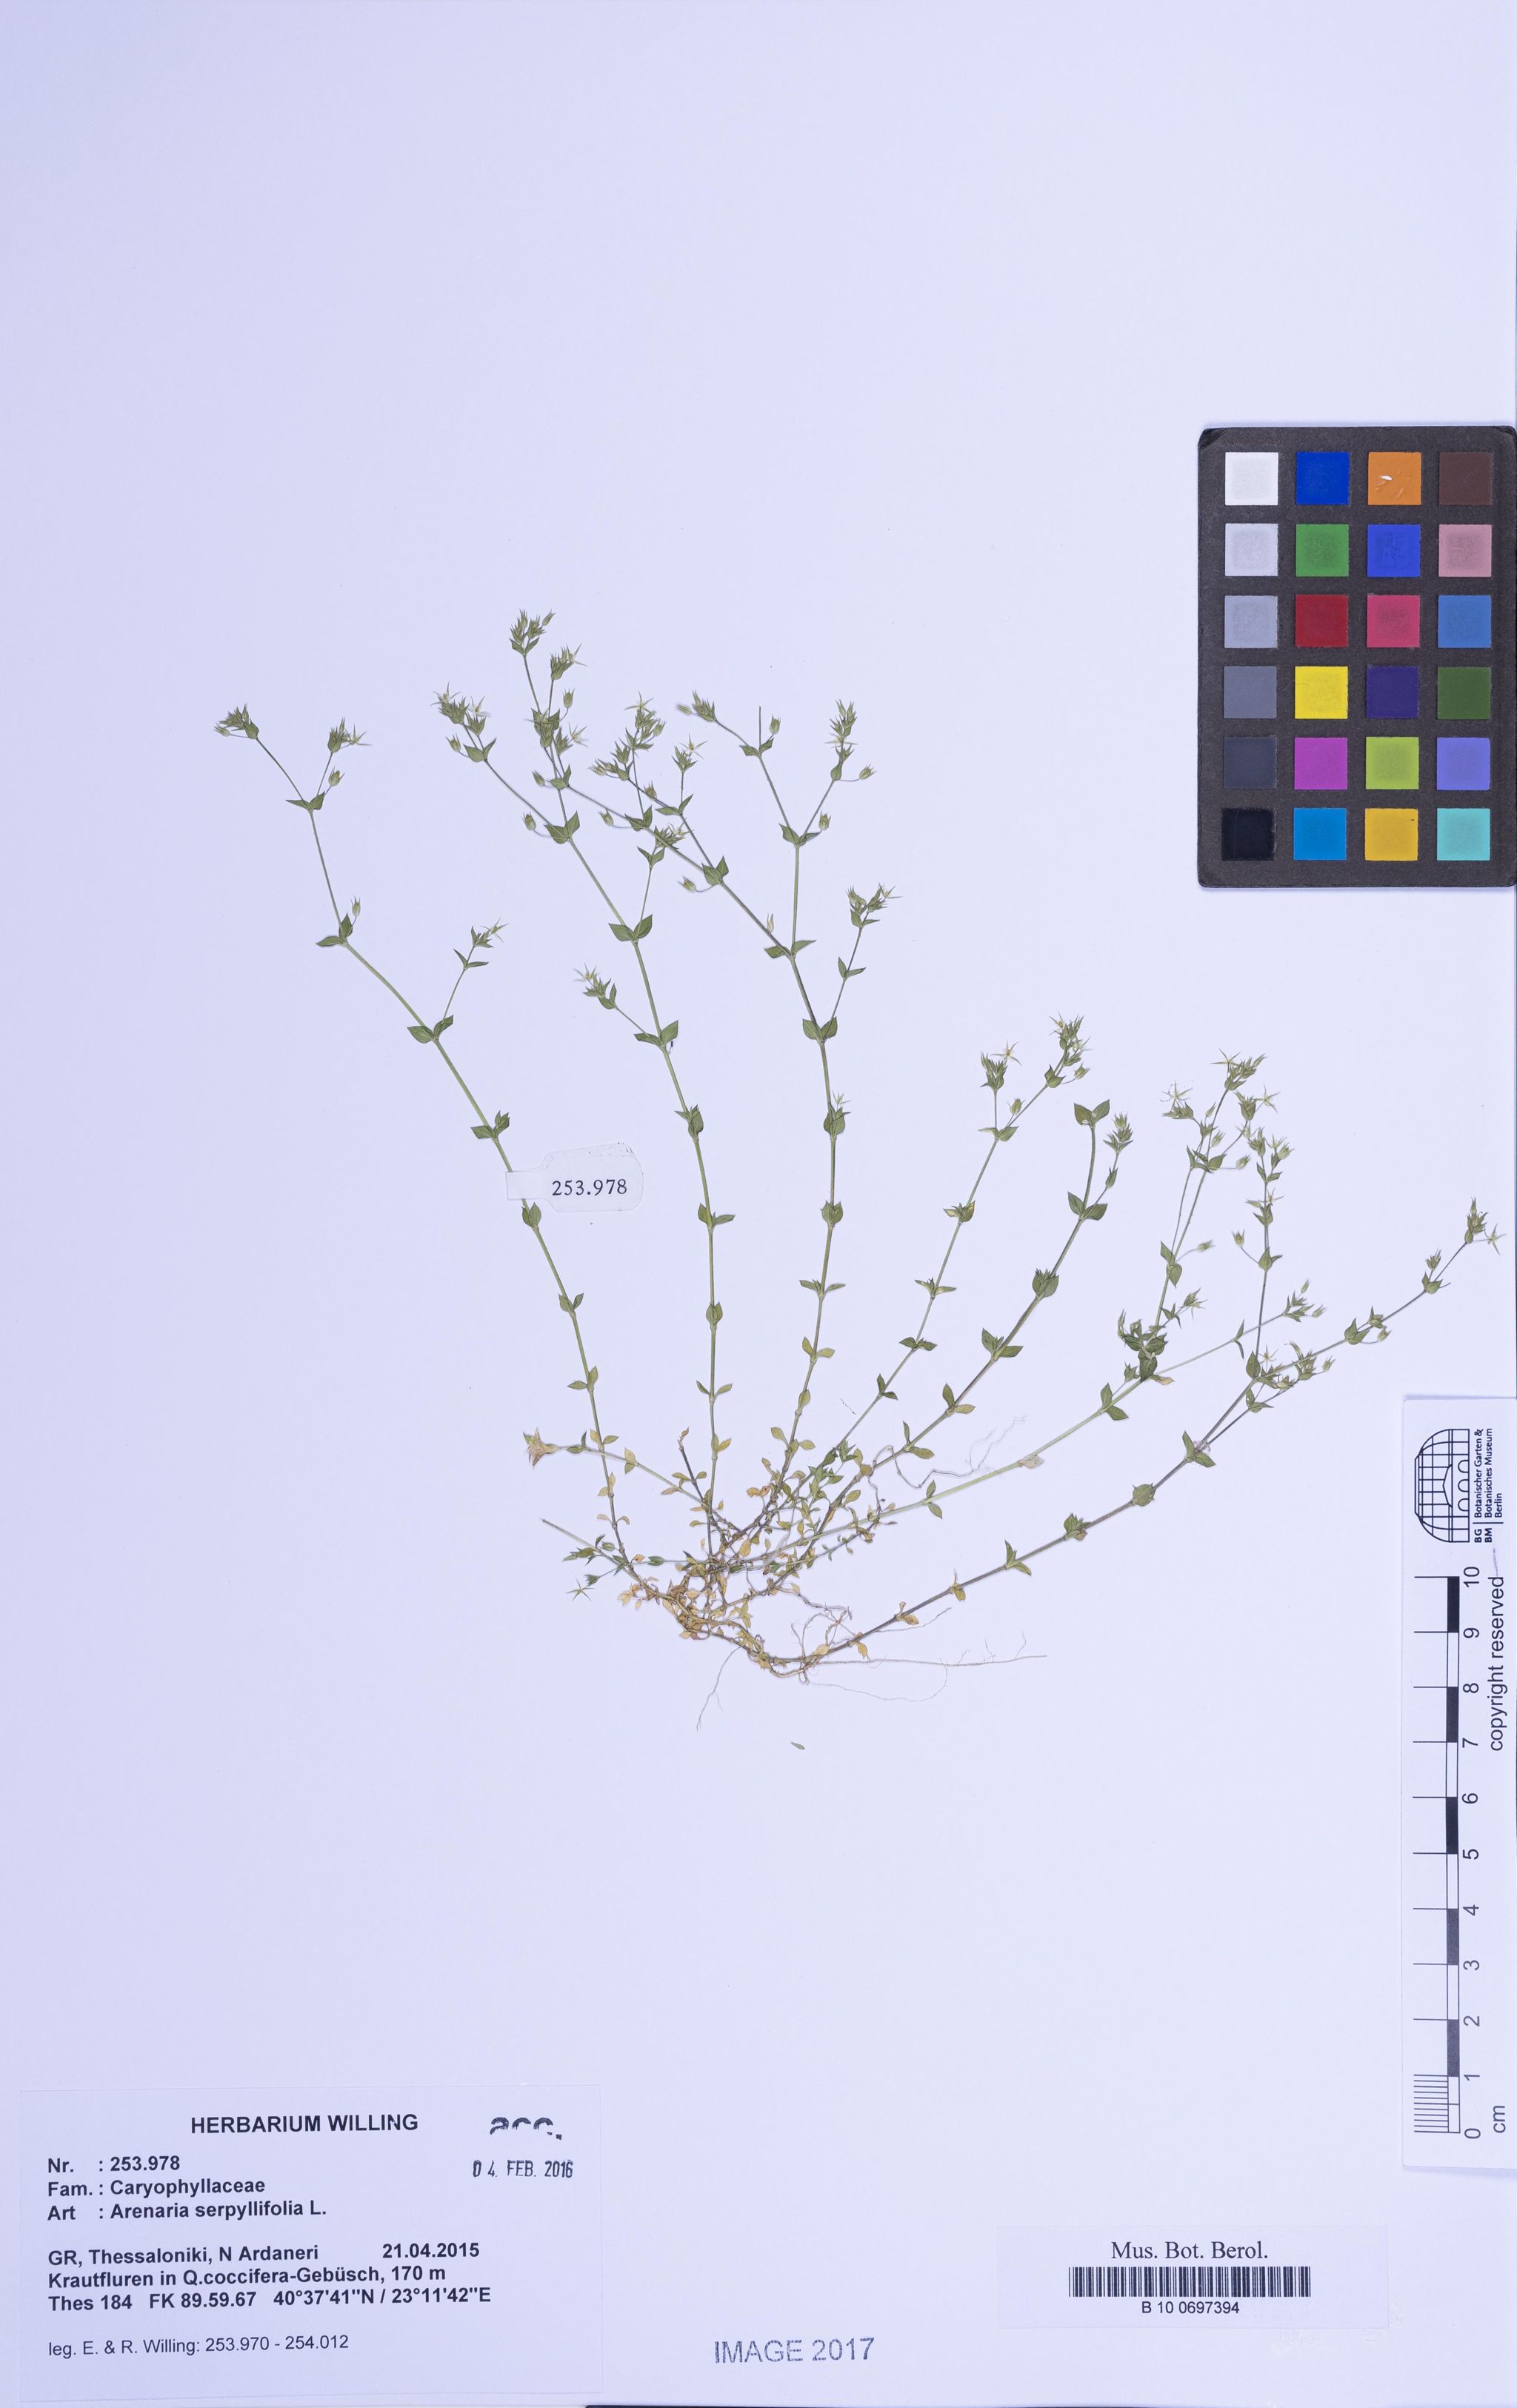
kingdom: Plantae
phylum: Tracheophyta
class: Magnoliopsida
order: Caryophyllales
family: Caryophyllaceae
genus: Arenaria
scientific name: Arenaria serpyllifolia
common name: Thyme-leaved sandwort
